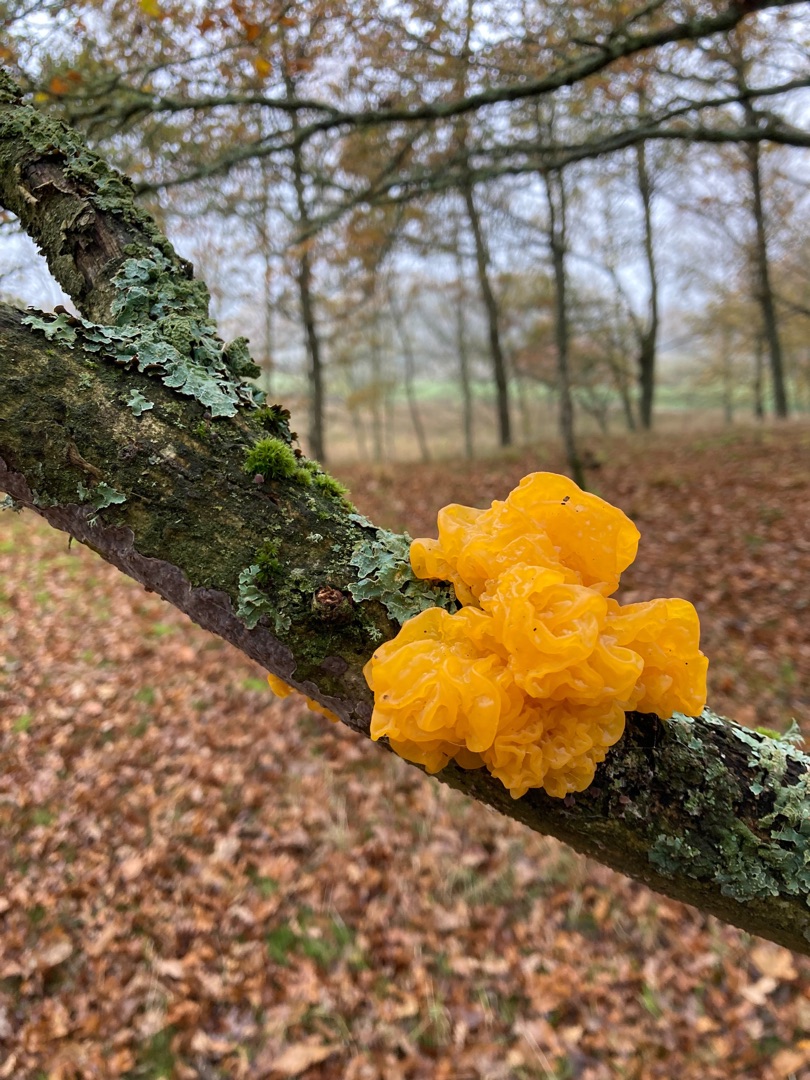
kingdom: Fungi
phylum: Basidiomycota
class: Tremellomycetes
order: Tremellales
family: Tremellaceae
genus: Tremella
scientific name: Tremella mesenterica
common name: Gul bævresvamp
